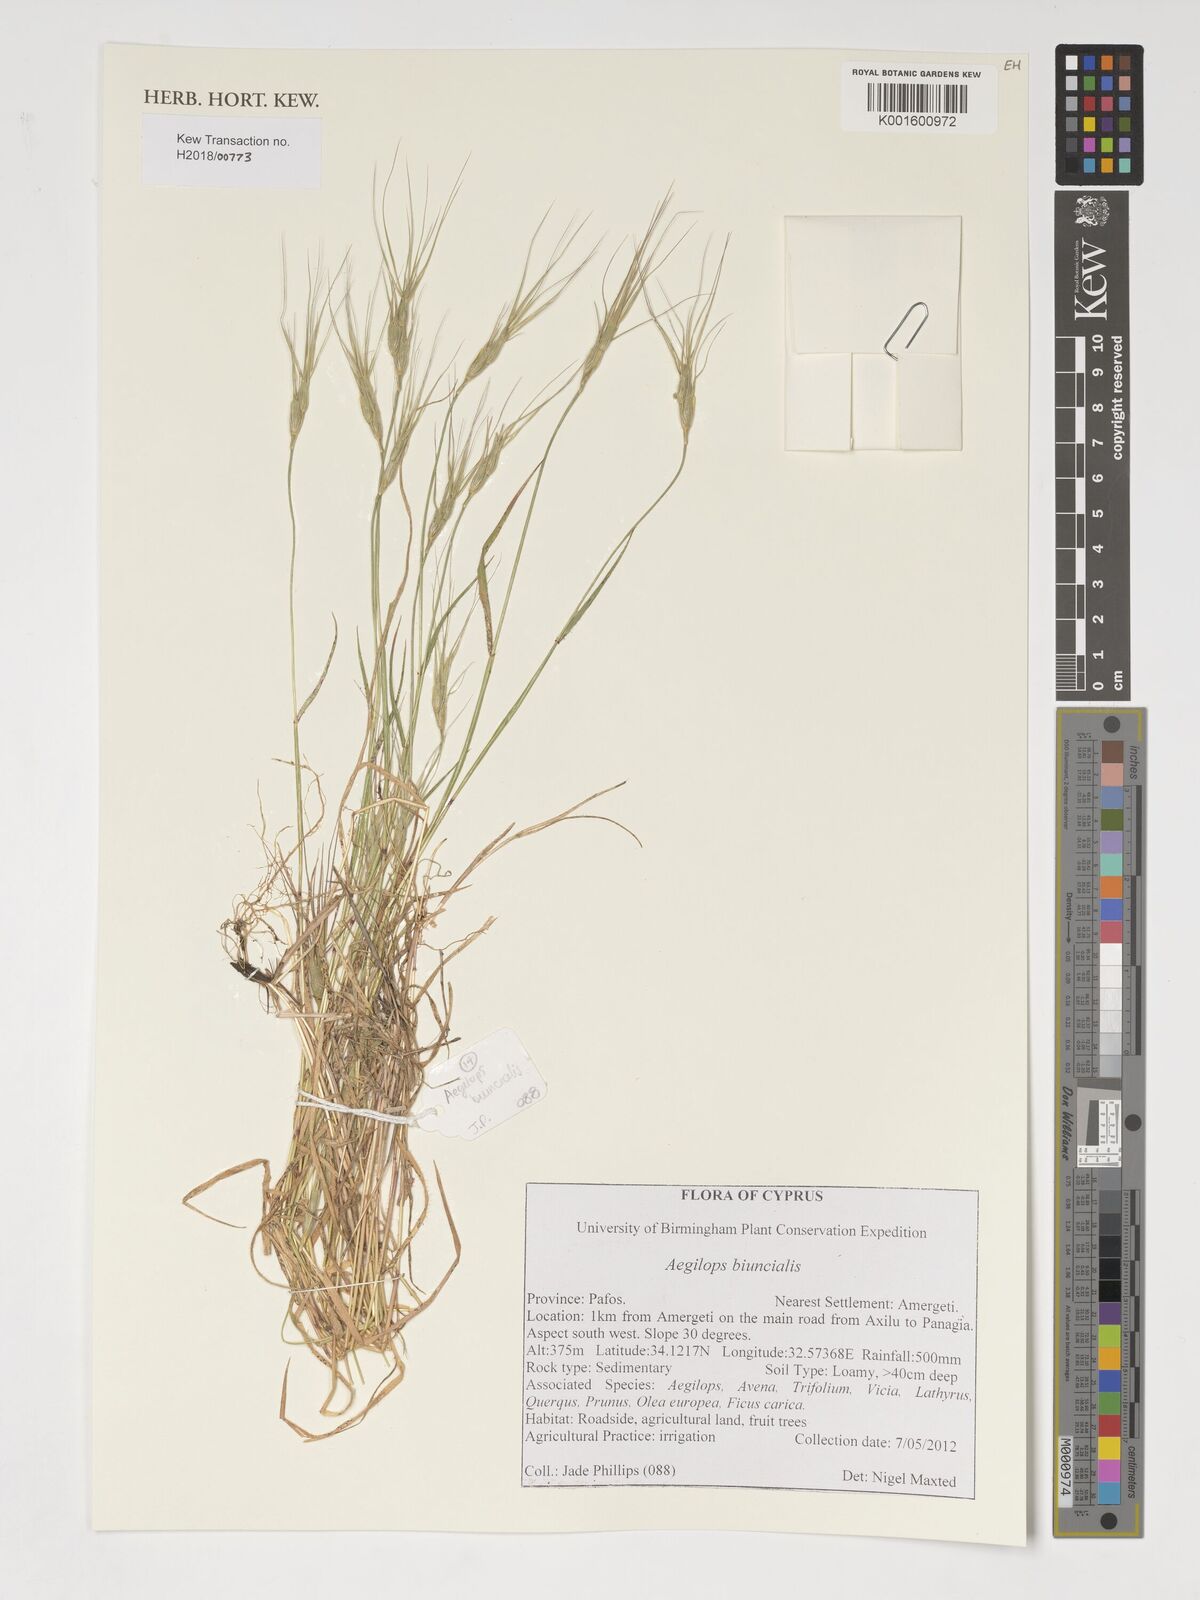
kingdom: Plantae
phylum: Tracheophyta
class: Liliopsida
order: Poales
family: Poaceae
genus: Aegilops
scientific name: Aegilops biuncialis
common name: Mediterranean aegilops
